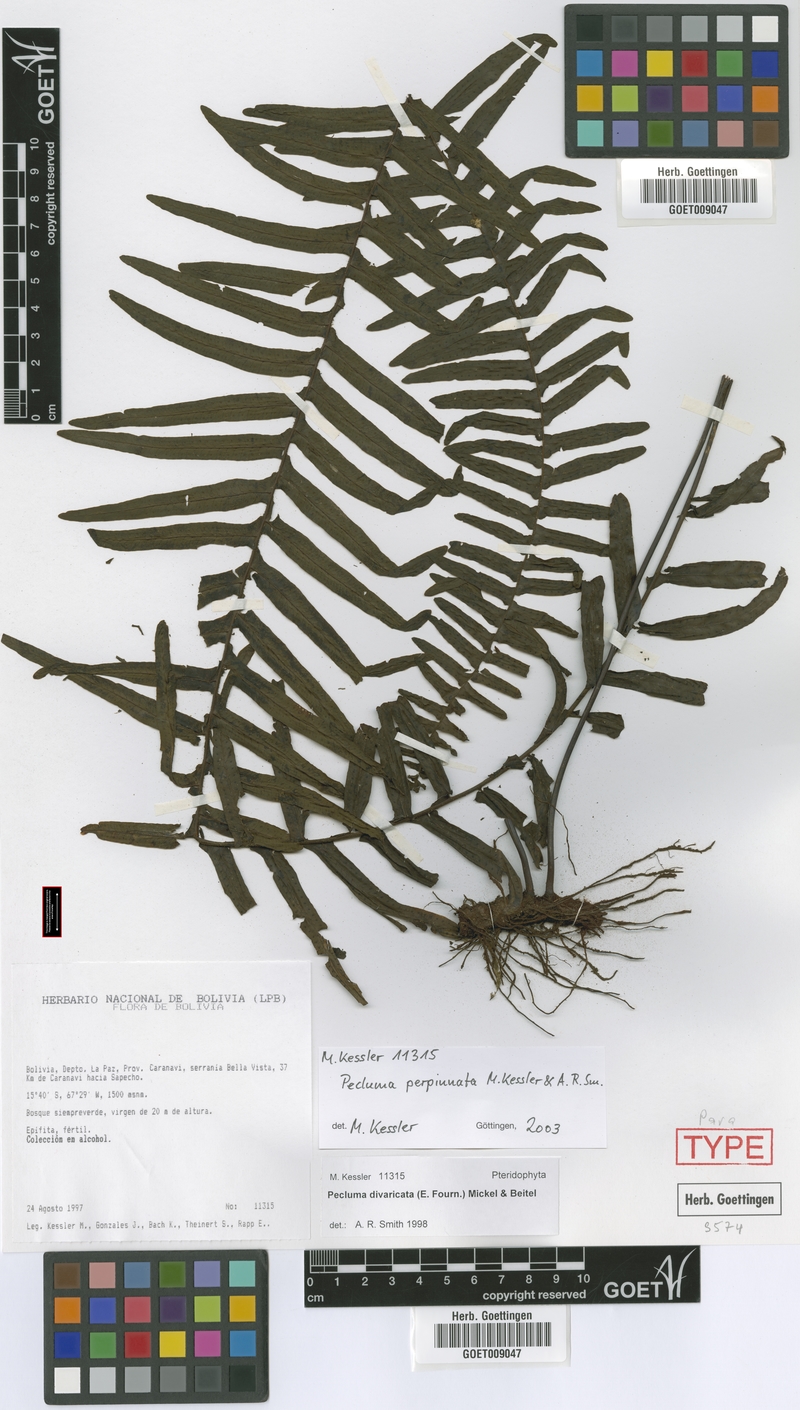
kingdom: Plantae
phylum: Tracheophyta
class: Polypodiopsida
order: Polypodiales
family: Polypodiaceae
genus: Pecluma
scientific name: Pecluma perpinnata
